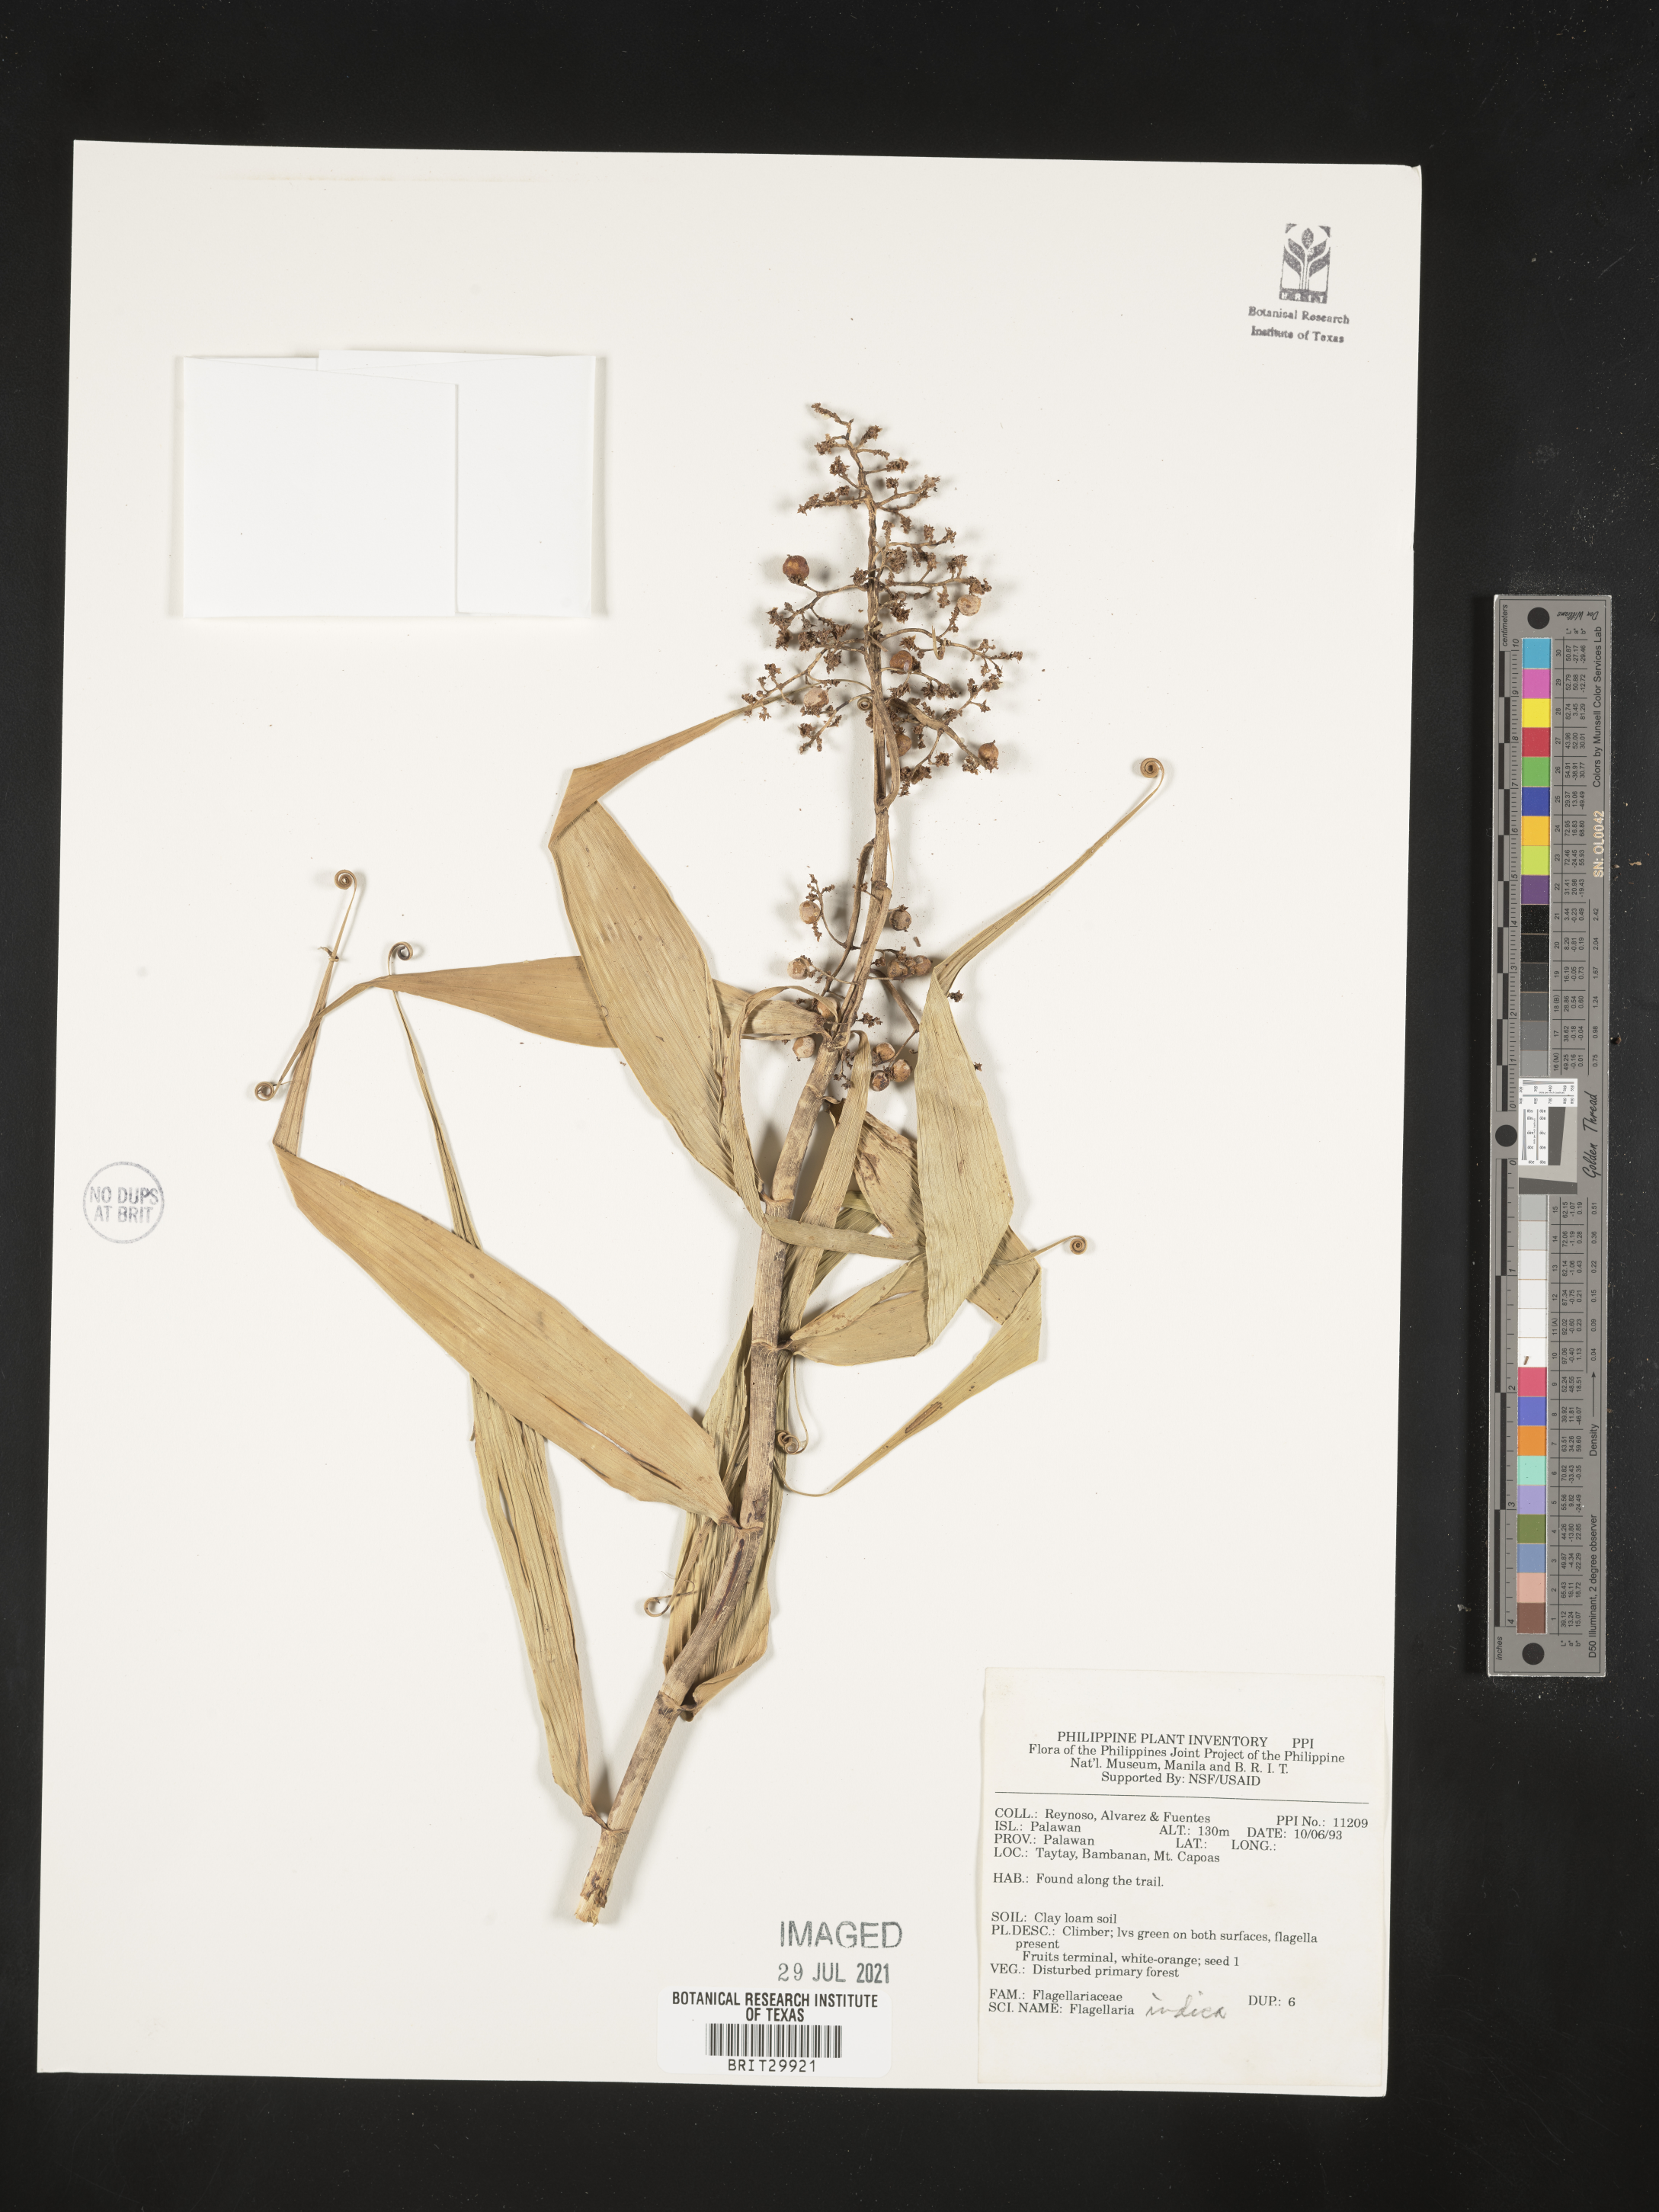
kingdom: Plantae
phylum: Tracheophyta
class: Liliopsida
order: Poales
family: Flagellariaceae
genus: Flagellaria
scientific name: Flagellaria indica
